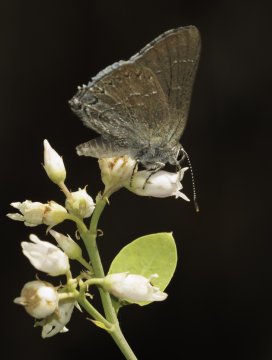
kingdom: Animalia
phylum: Arthropoda
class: Insecta
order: Lepidoptera
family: Lycaenidae
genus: Thecla
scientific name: Thecla tetra
